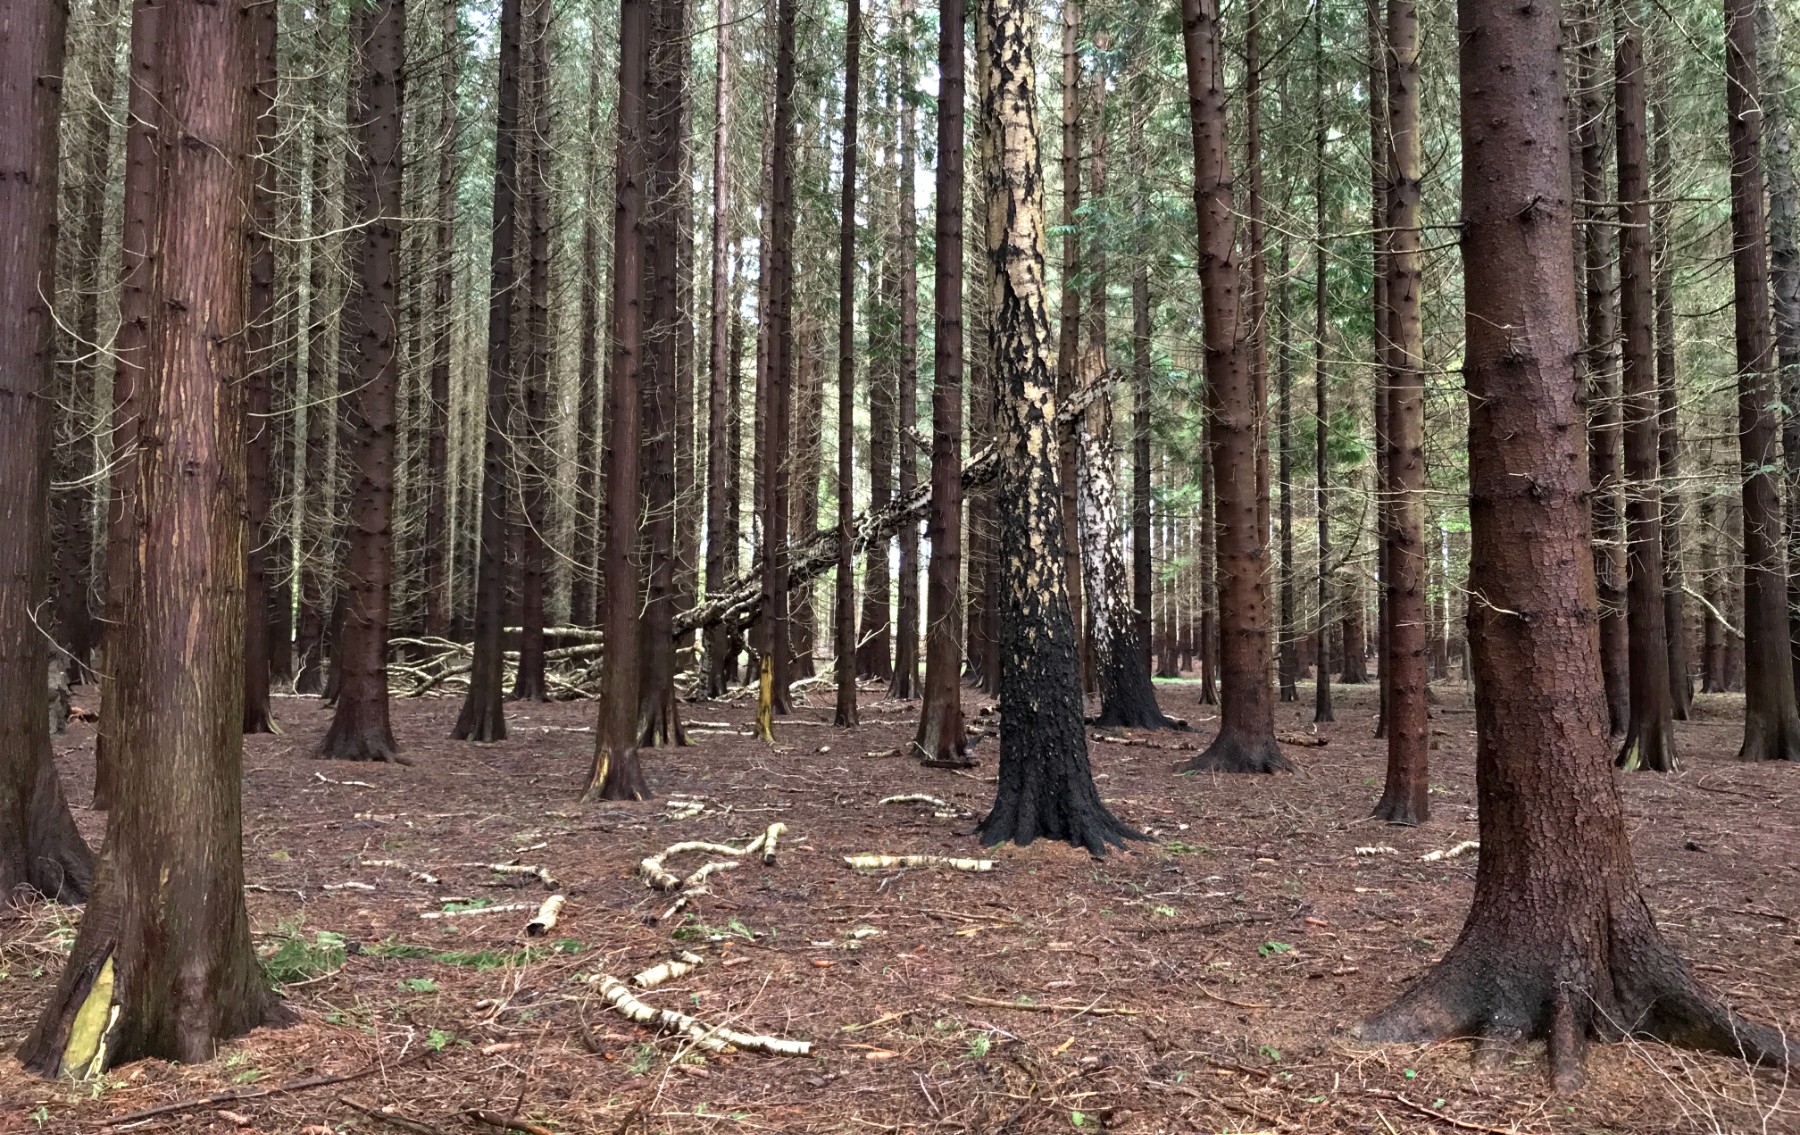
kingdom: Fungi
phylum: Basidiomycota
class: Agaricomycetes
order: Polyporales
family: Polyporaceae
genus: Fomes
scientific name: Fomes fomentarius
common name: tøndersvamp
